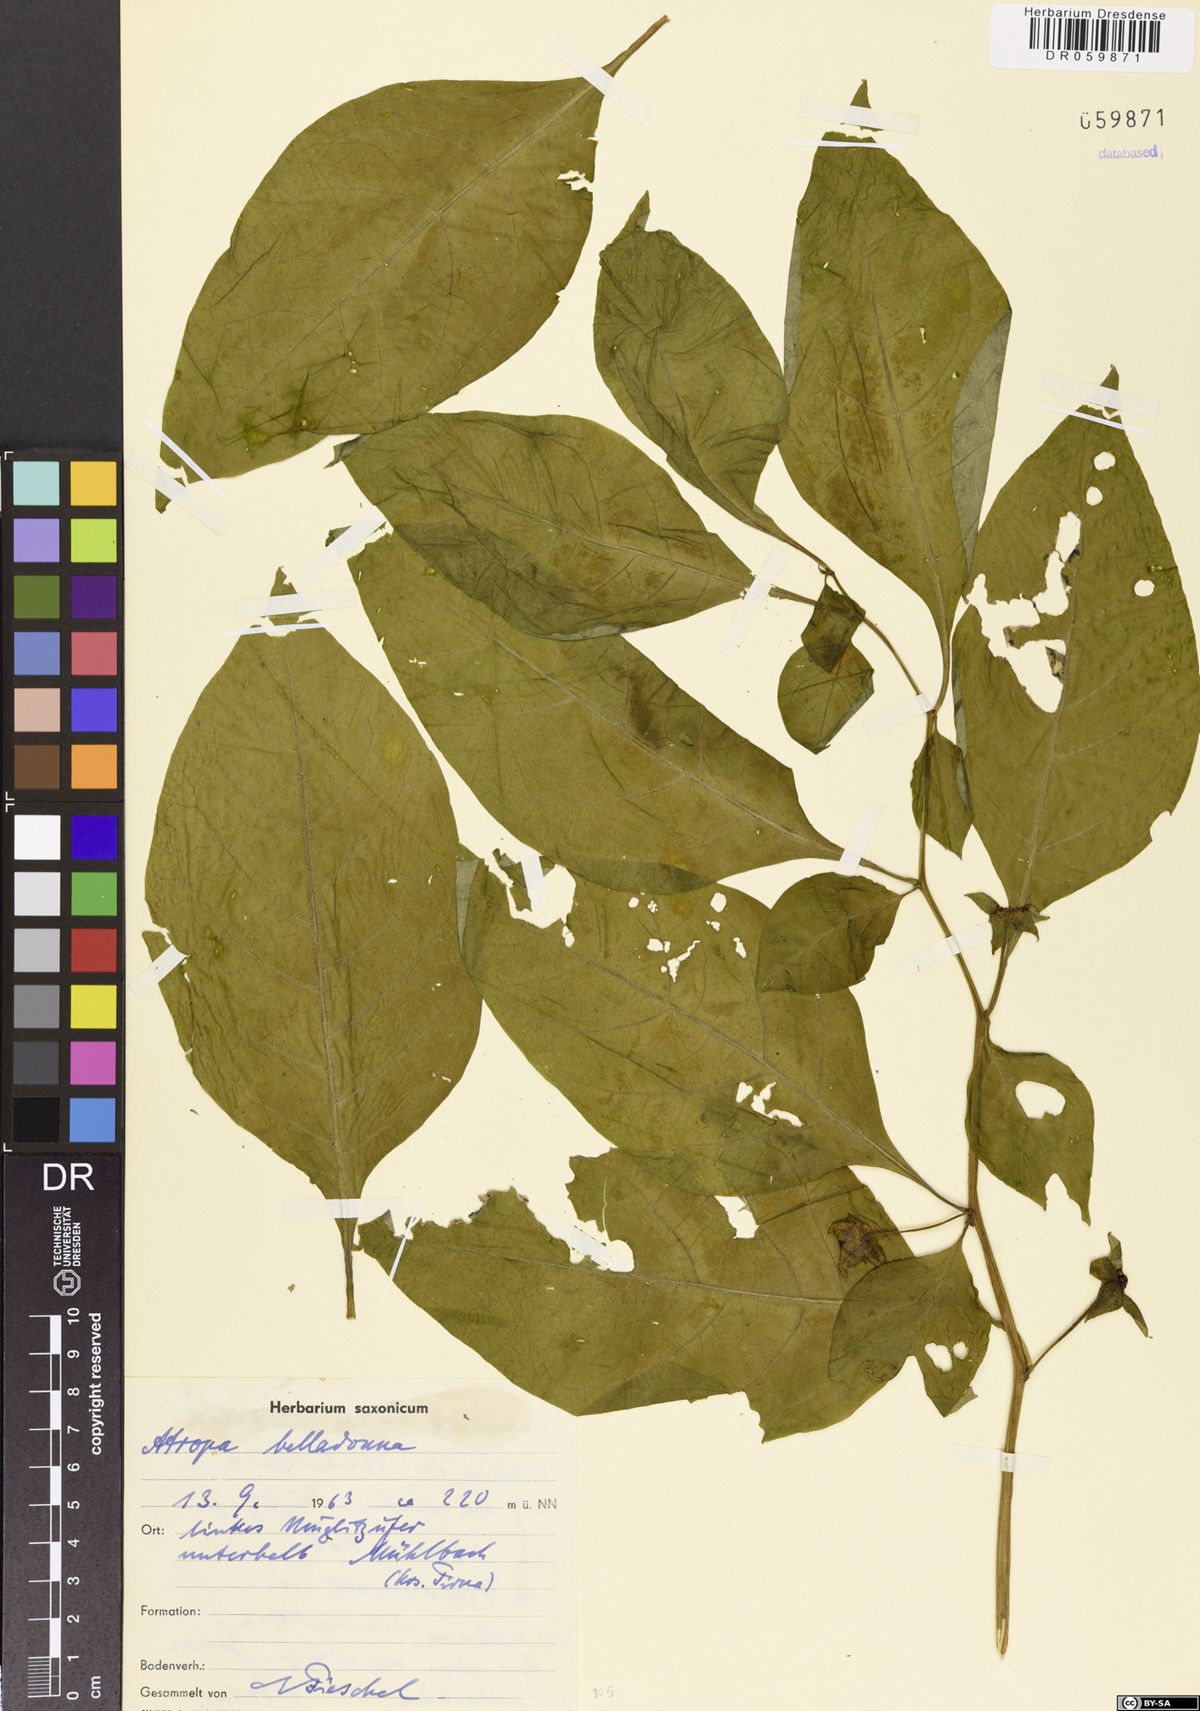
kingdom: Plantae
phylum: Tracheophyta
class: Magnoliopsida
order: Solanales
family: Solanaceae
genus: Atropa
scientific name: Atropa belladonna
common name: Deadly nightshade
